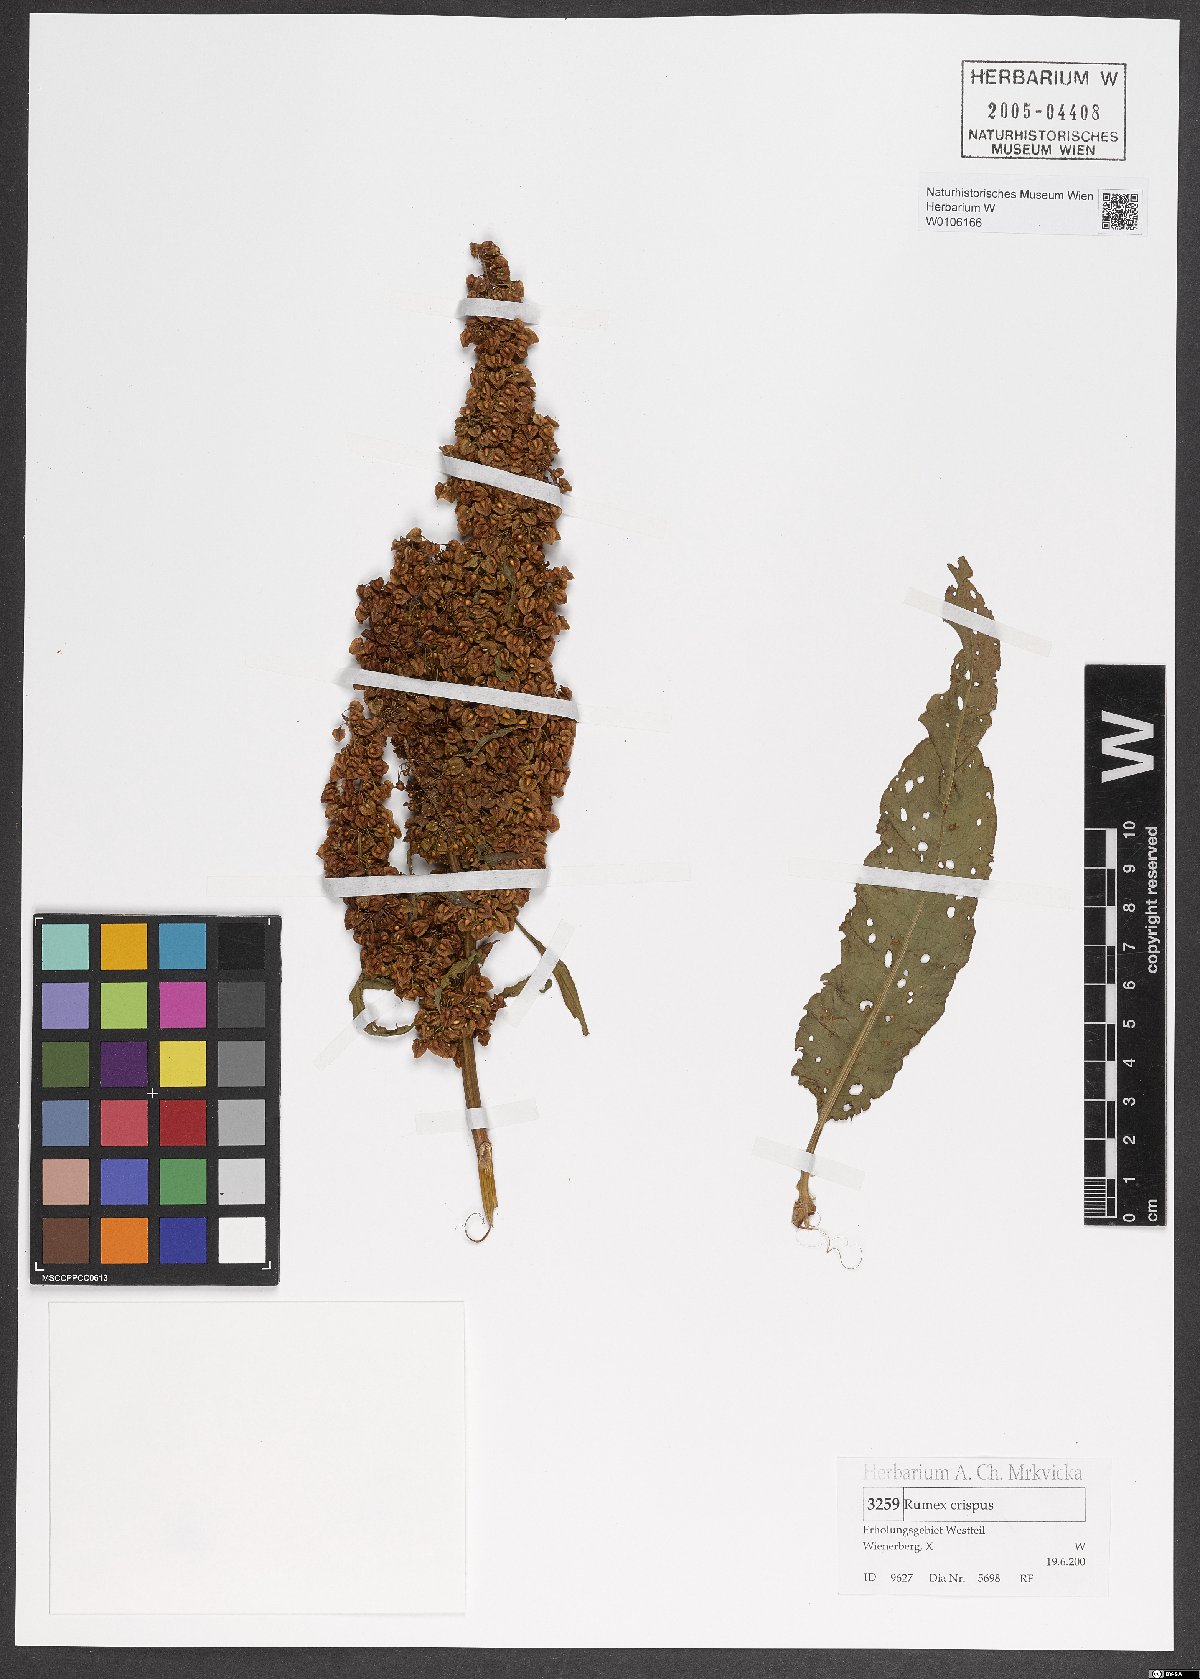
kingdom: Plantae
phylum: Tracheophyta
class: Magnoliopsida
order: Caryophyllales
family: Polygonaceae
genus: Rumex
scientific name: Rumex crispus
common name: Curled dock
